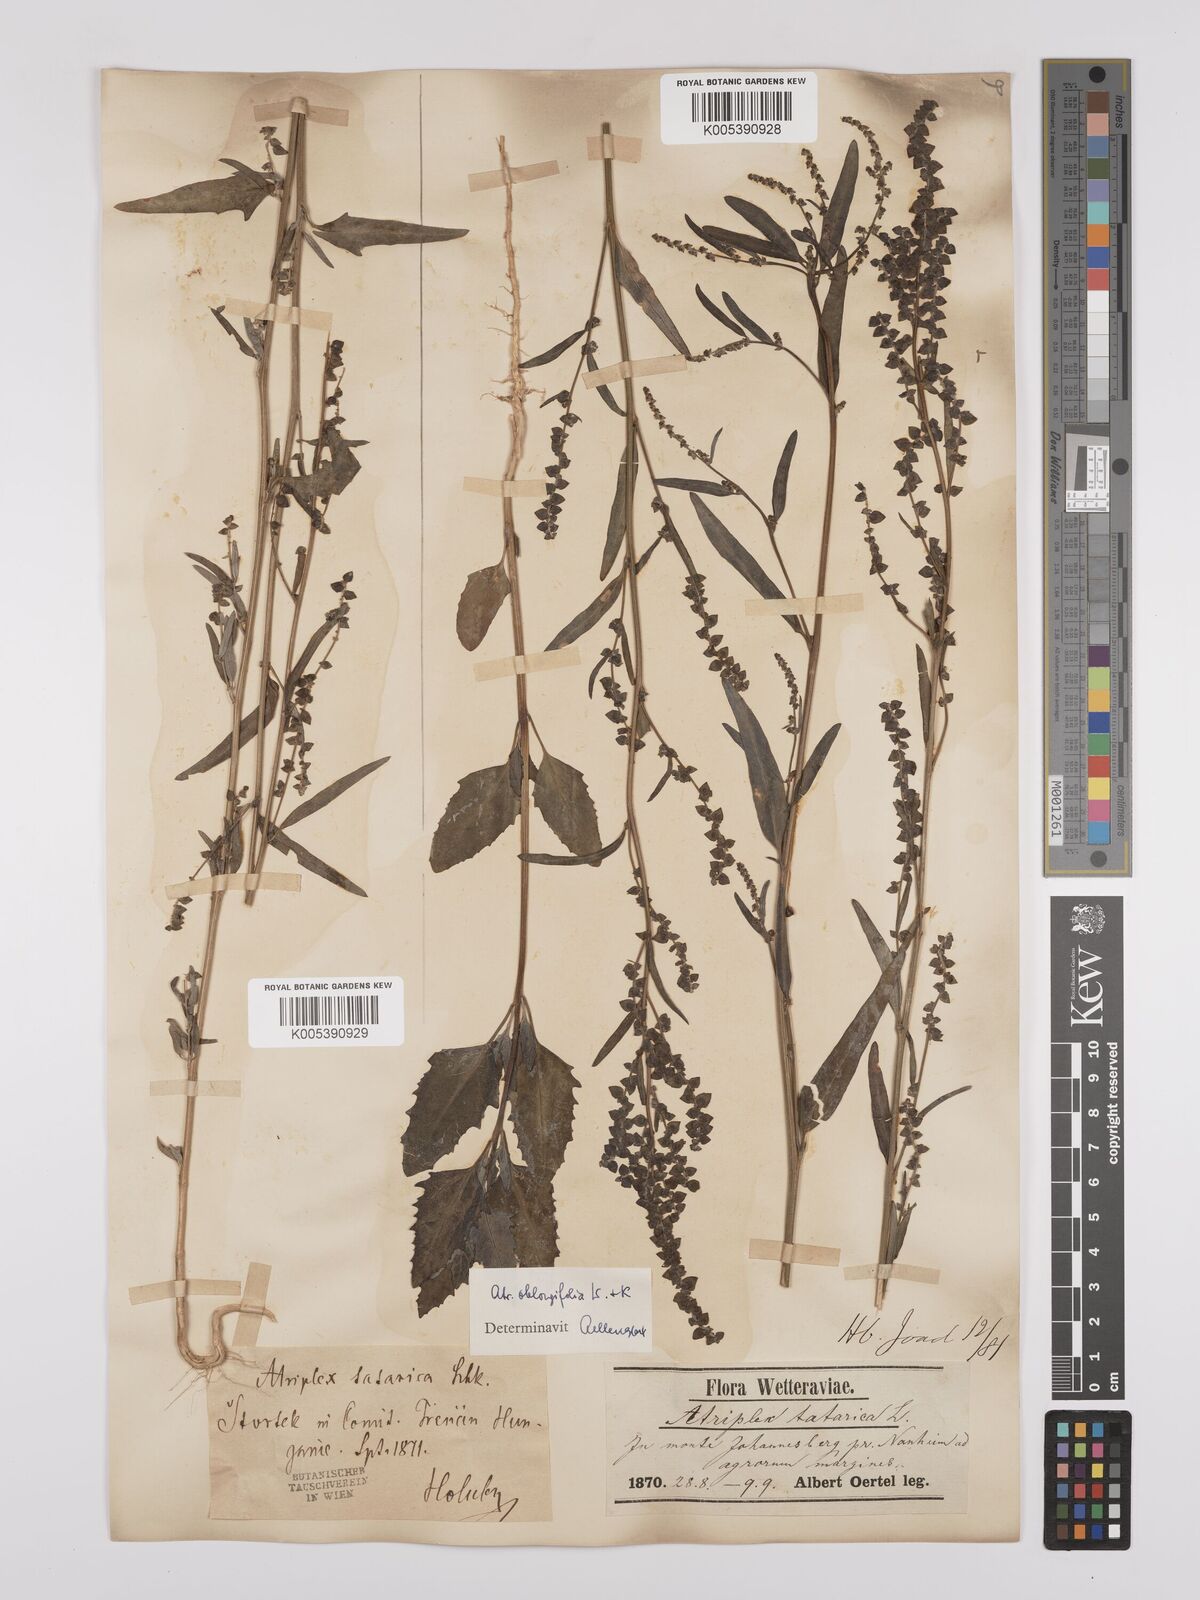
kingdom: Plantae
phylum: Tracheophyta
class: Magnoliopsida
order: Caryophyllales
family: Amaranthaceae
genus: Atriplex
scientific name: Atriplex
